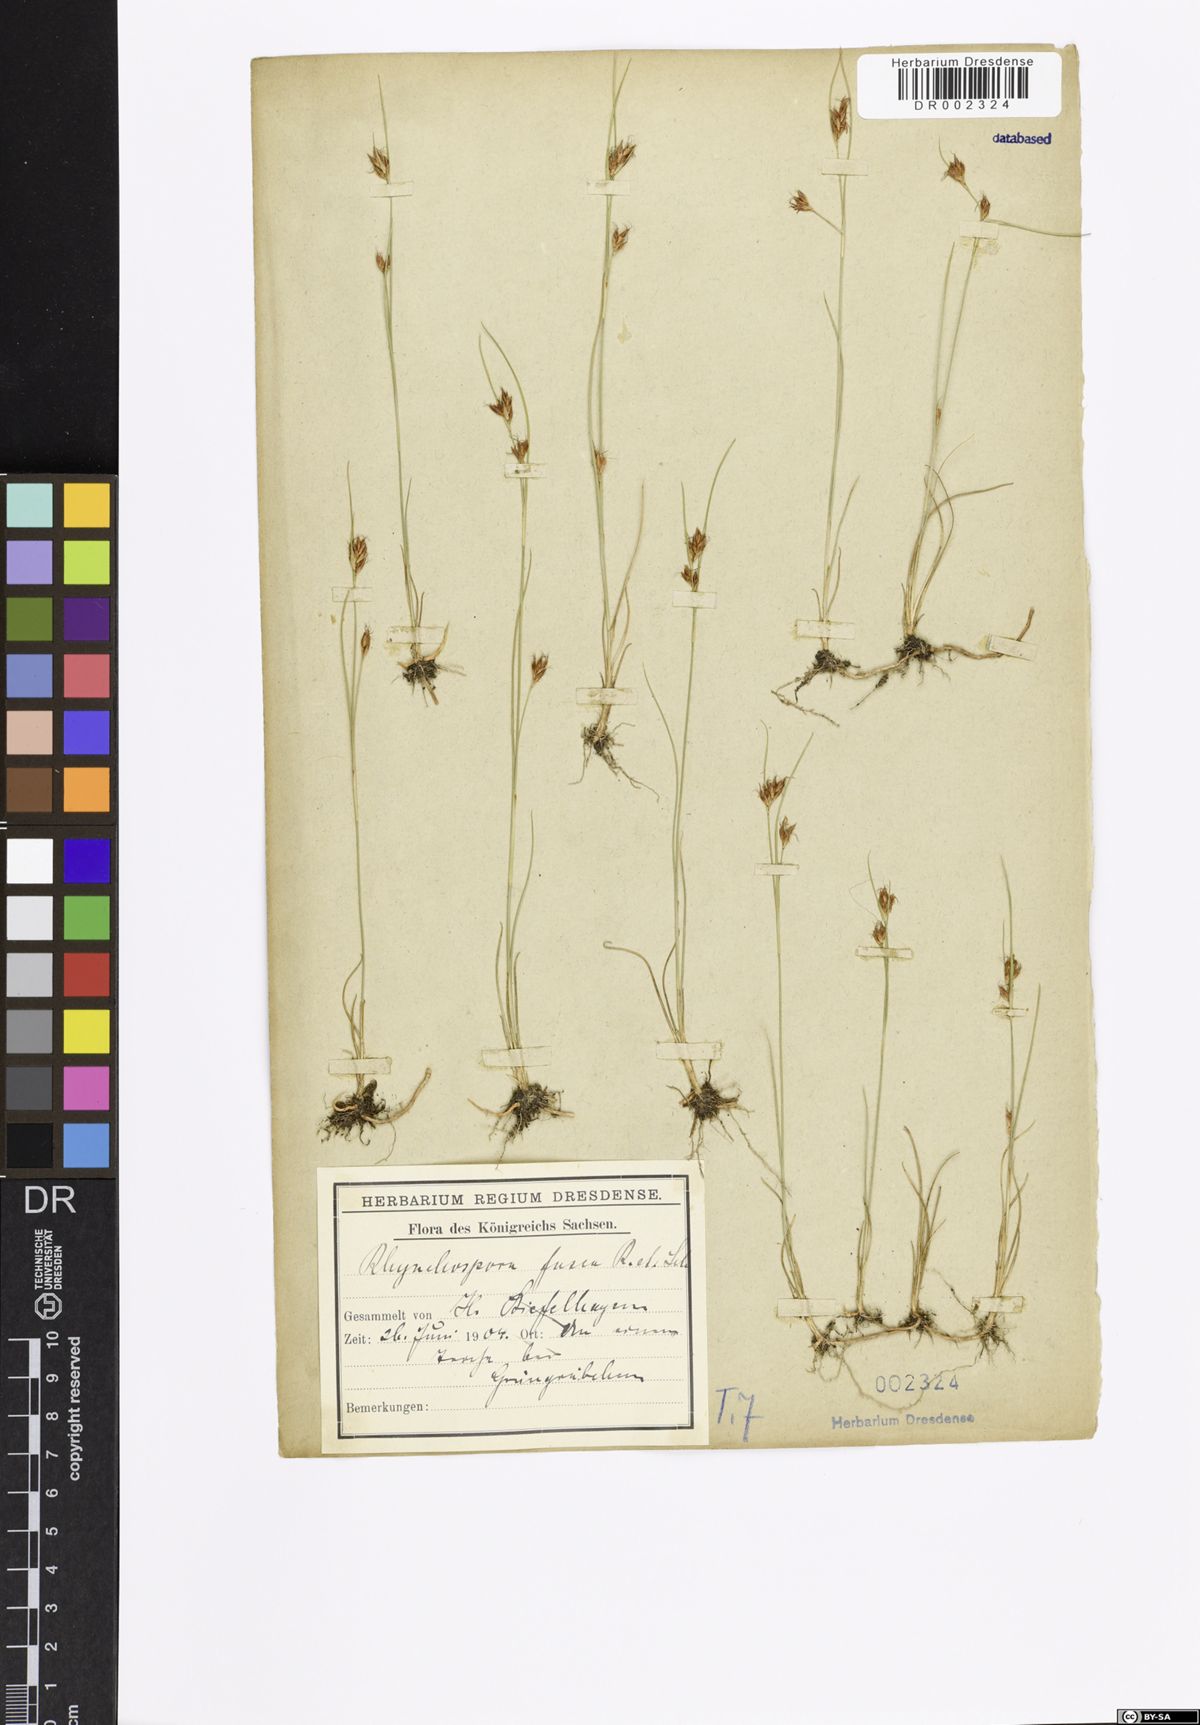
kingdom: Plantae
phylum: Tracheophyta
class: Liliopsida
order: Poales
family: Cyperaceae
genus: Rhynchospora
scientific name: Rhynchospora fusca
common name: Brown beak-sedge
